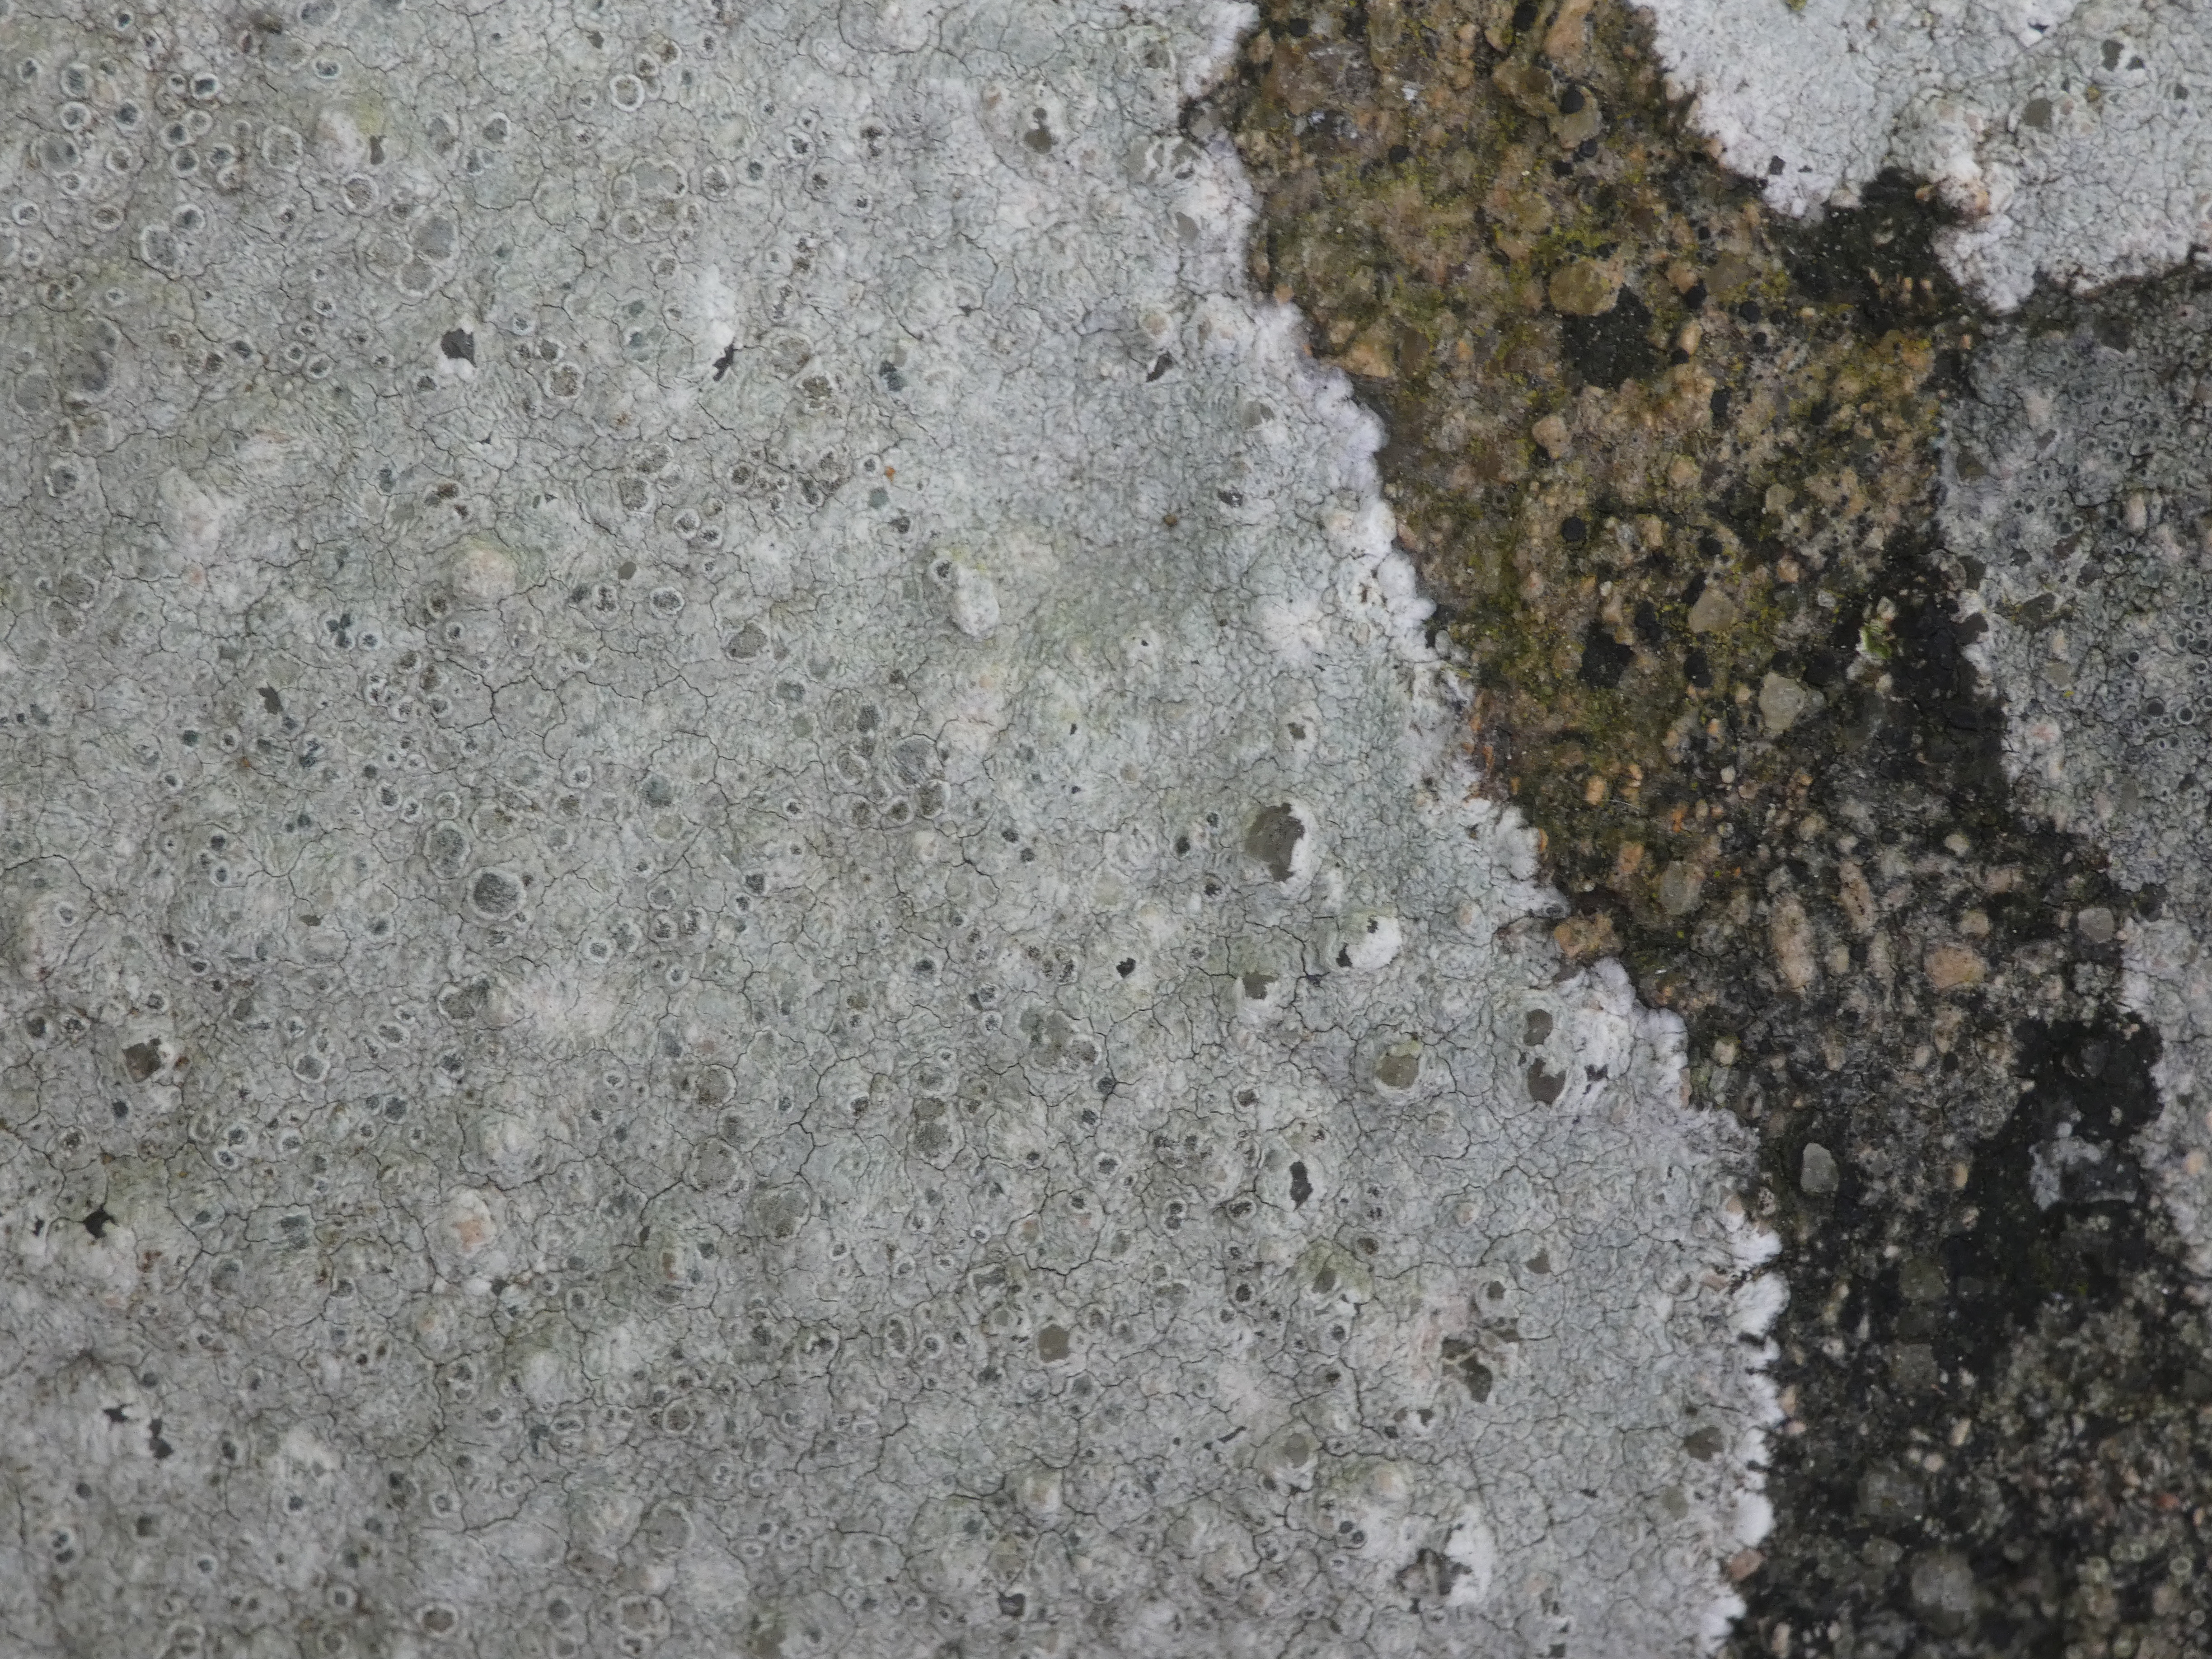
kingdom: Fungi
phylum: Ascomycota
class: Lecanoromycetes
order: Lecanorales
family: Lecanoraceae
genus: Glaucomaria
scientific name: Glaucomaria rupicola
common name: Stengærde-kantskivelav
